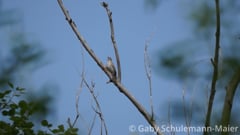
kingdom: Animalia
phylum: Chordata
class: Aves
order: Piciformes
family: Picidae
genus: Jynx
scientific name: Jynx torquilla
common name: Eurasian wryneck
